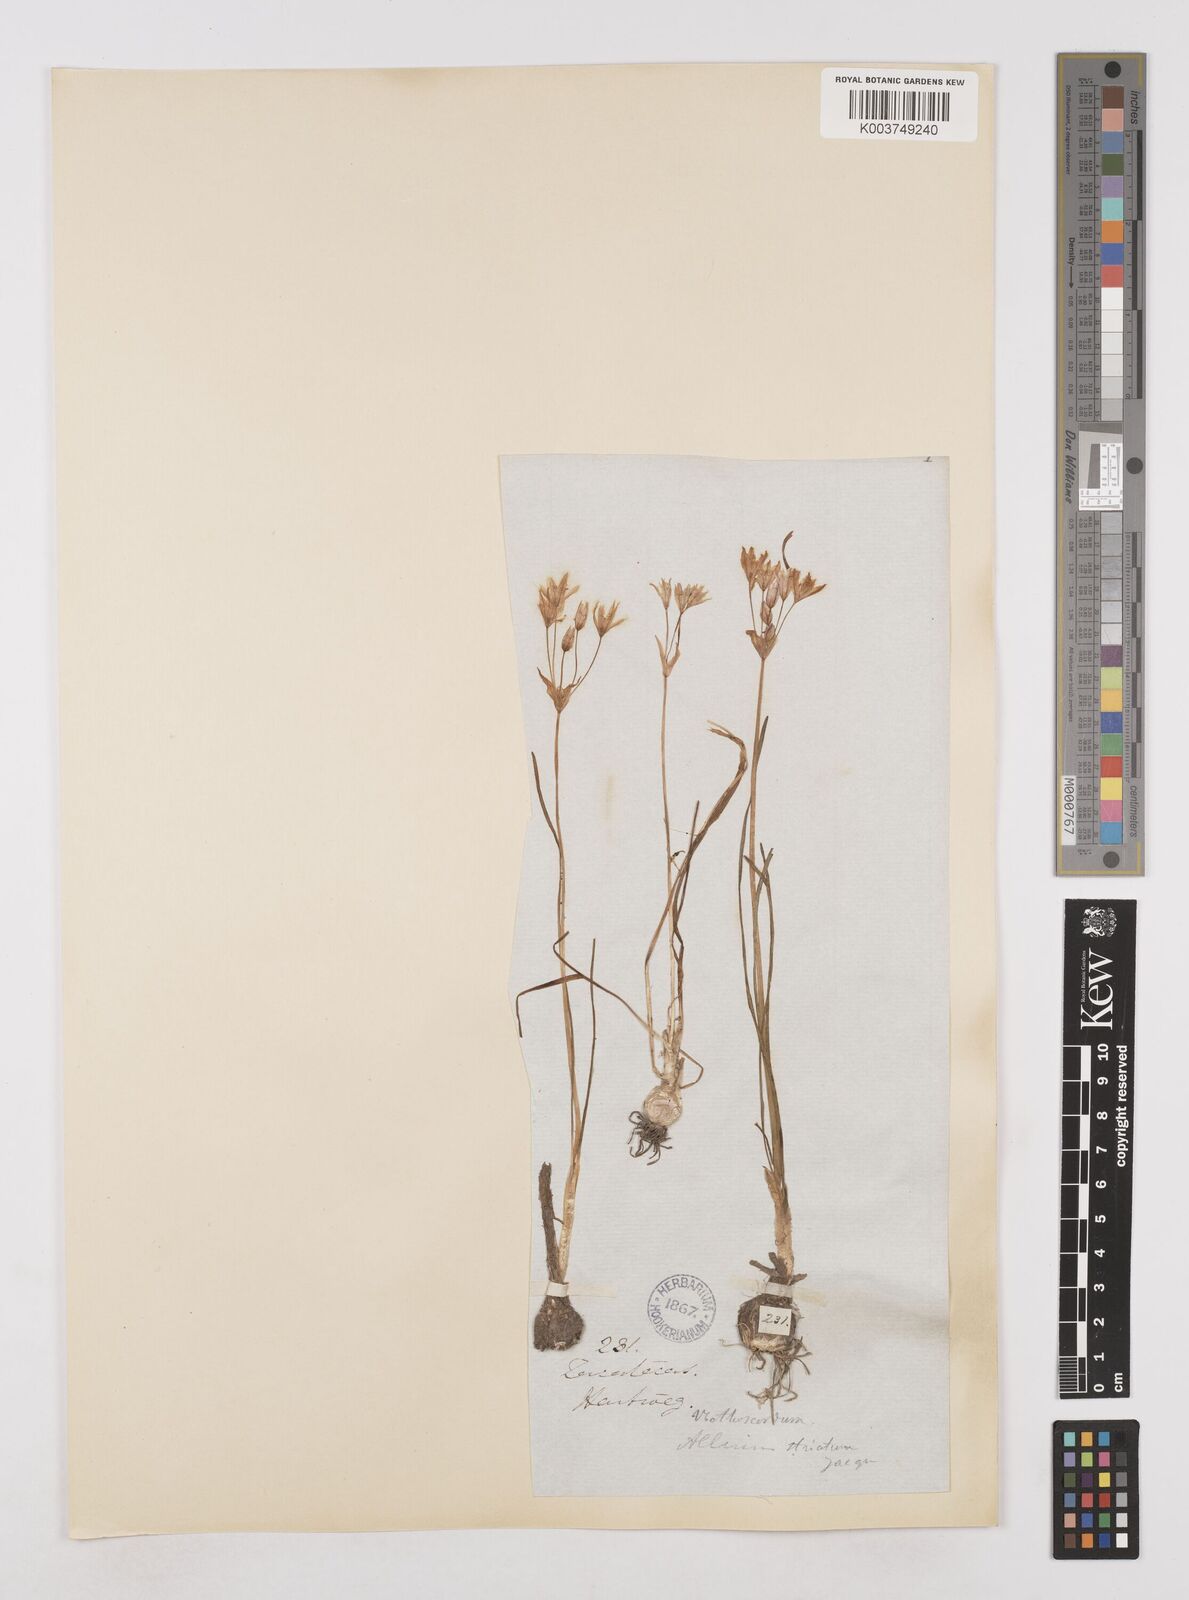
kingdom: Plantae
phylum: Tracheophyta
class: Liliopsida
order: Asparagales
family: Amaryllidaceae
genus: Nothoscordum
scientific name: Nothoscordum bivalve
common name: Crow-poison
